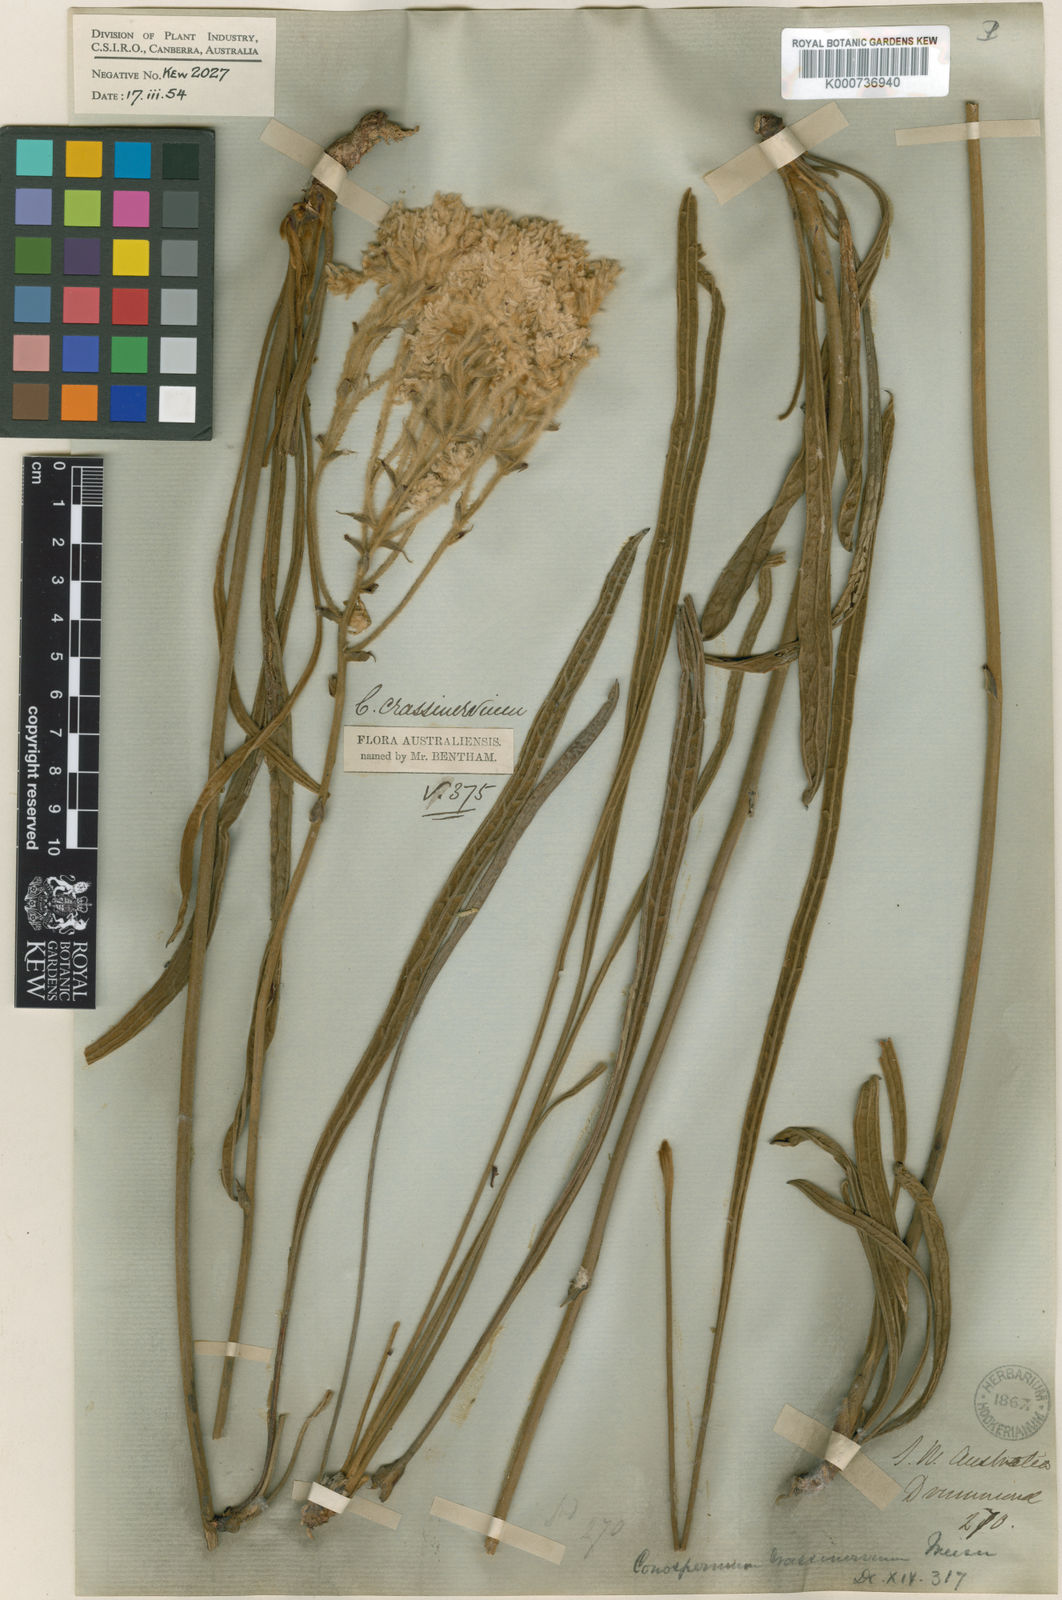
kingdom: Plantae
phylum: Tracheophyta
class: Magnoliopsida
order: Proteales
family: Proteaceae
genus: Conospermum
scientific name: Conospermum crassinervium
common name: Tassel smokebush
